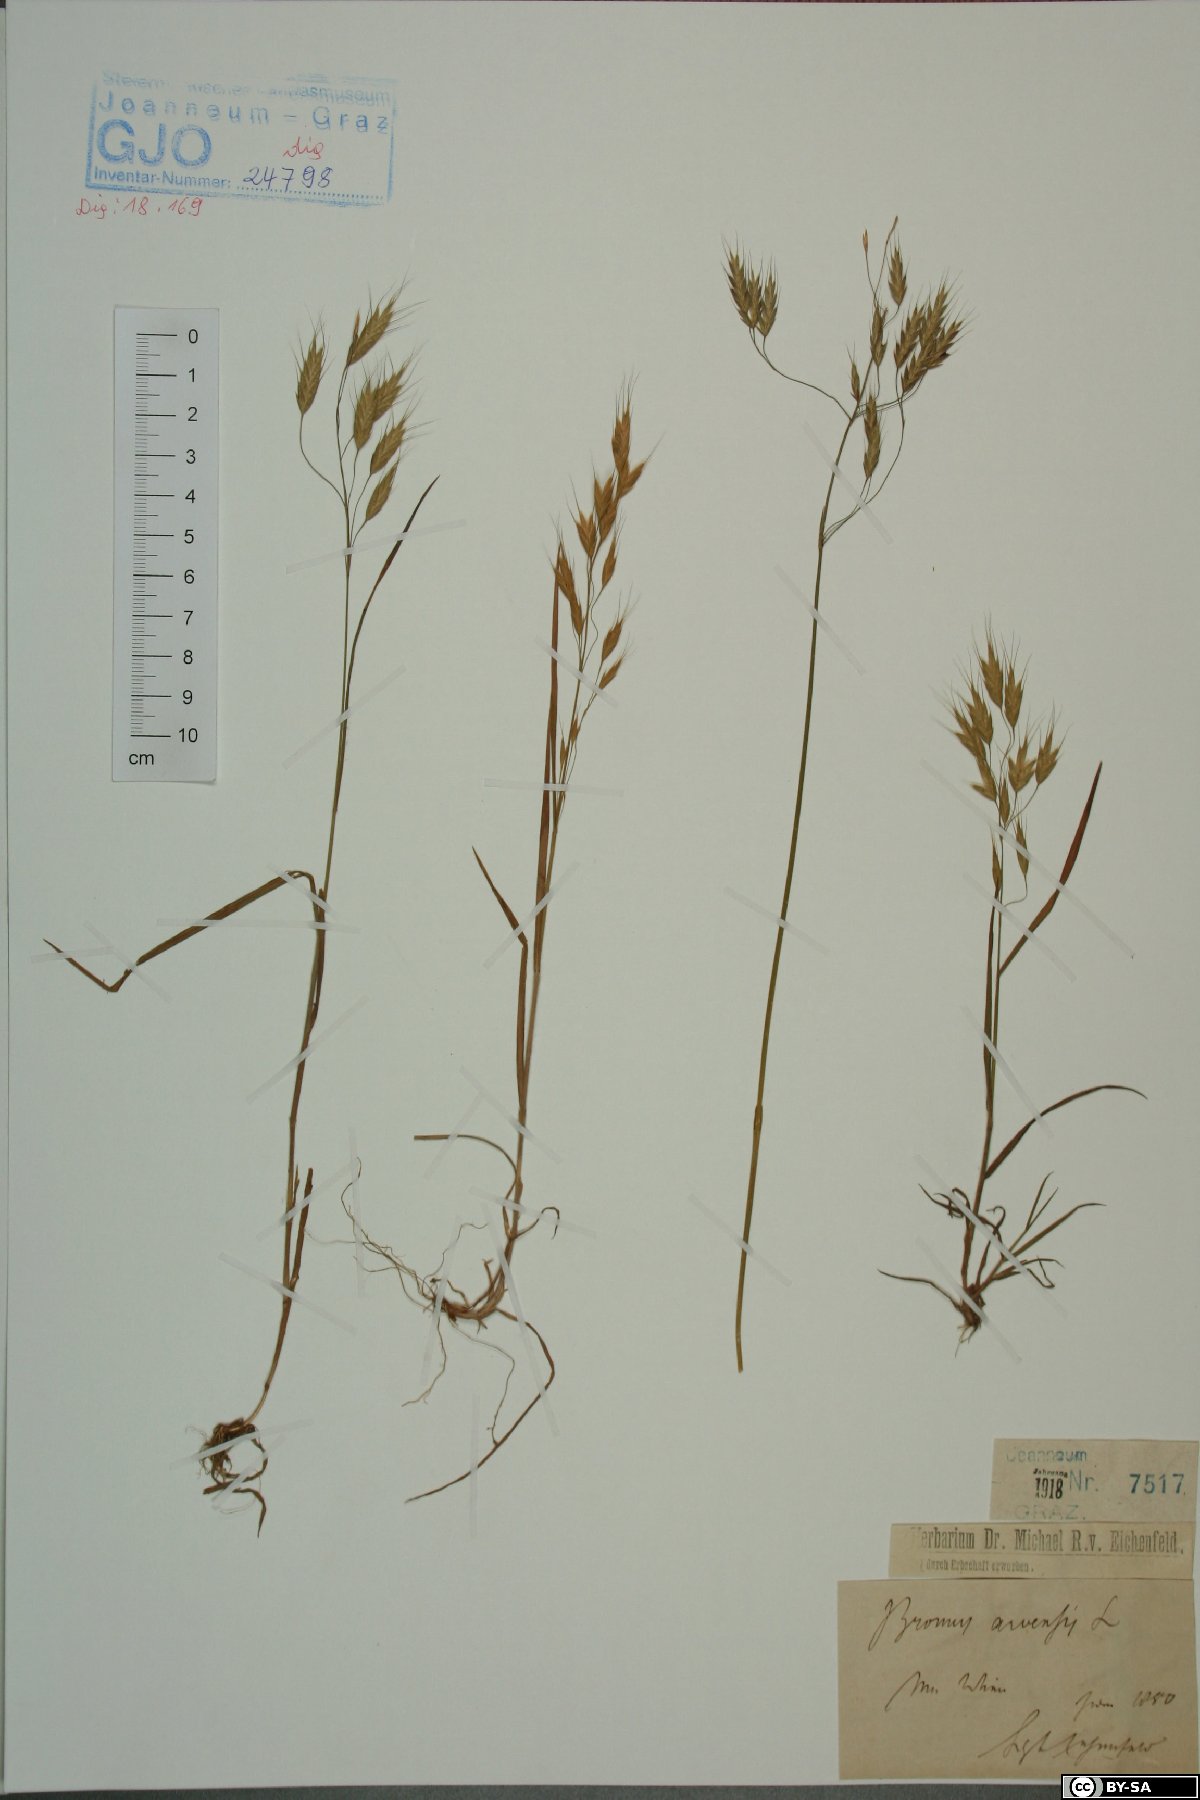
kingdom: Plantae
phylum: Tracheophyta
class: Liliopsida
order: Poales
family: Poaceae
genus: Bromus
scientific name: Bromus arvensis
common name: Field brome
